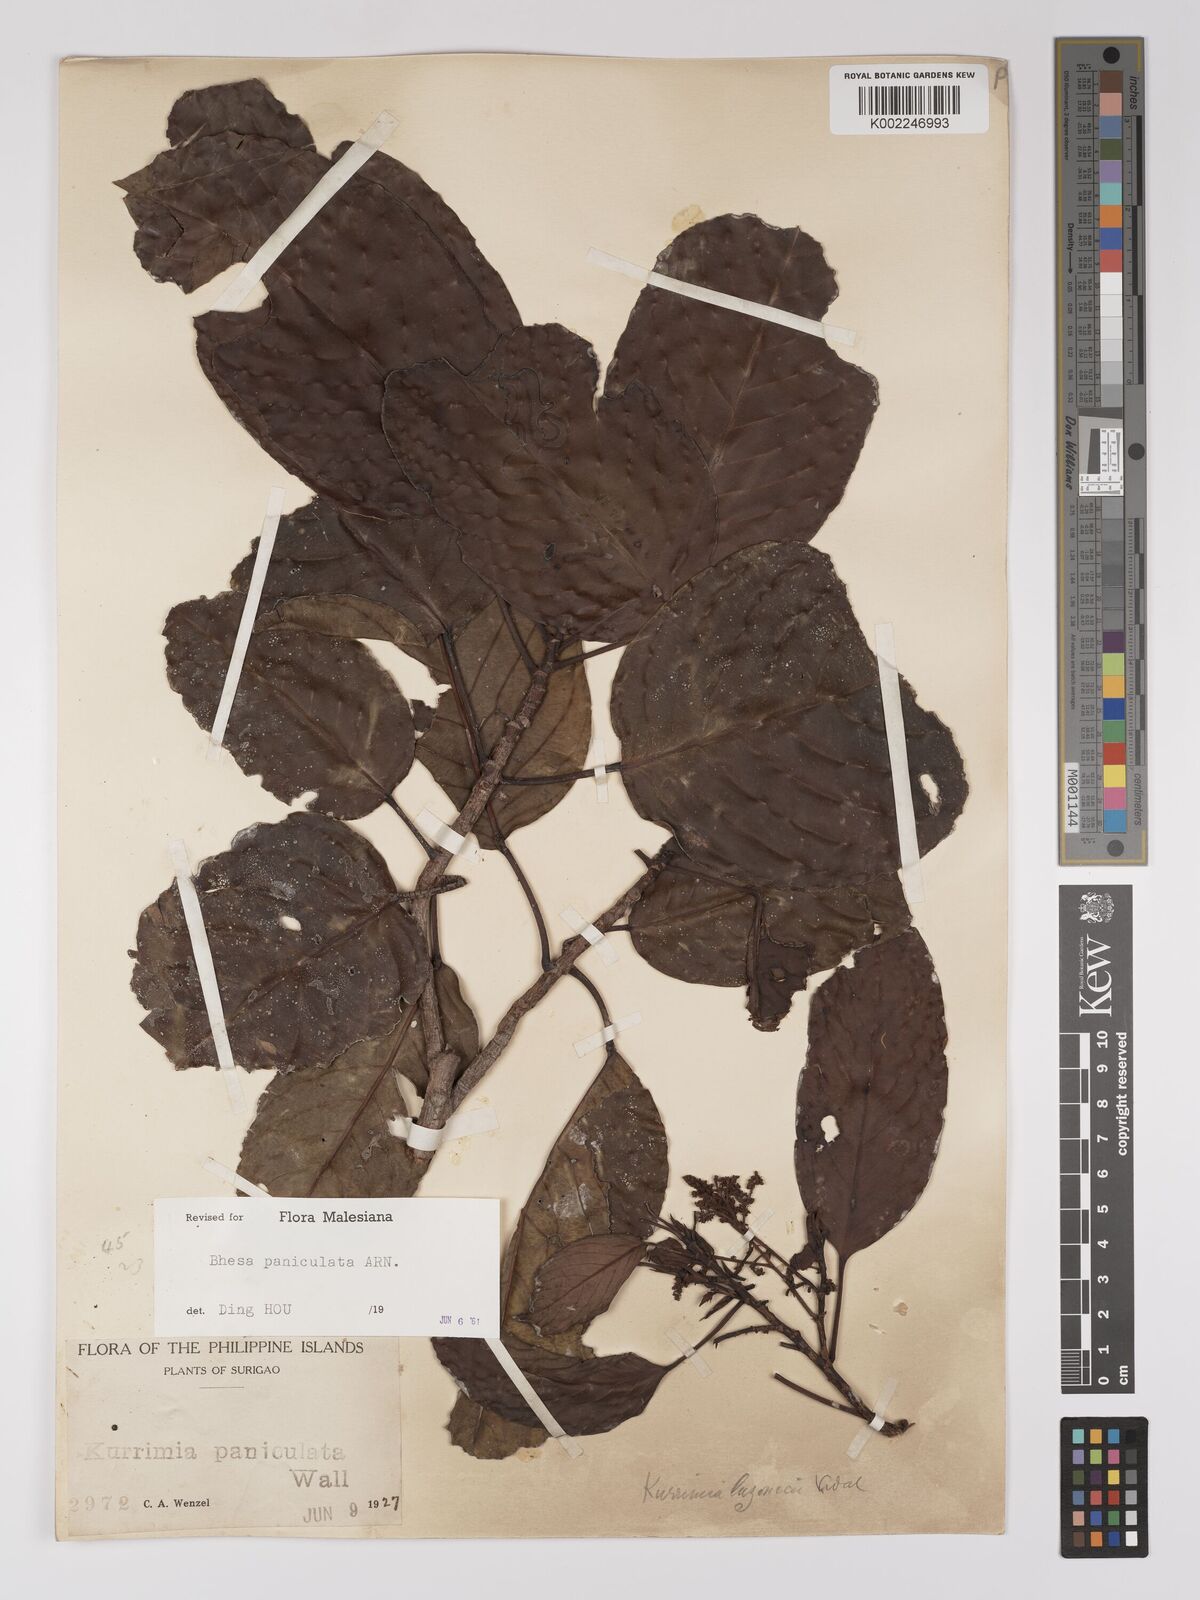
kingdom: Plantae
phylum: Tracheophyta
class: Magnoliopsida
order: Malpighiales
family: Centroplacaceae
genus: Bhesa
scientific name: Bhesa paniculata
